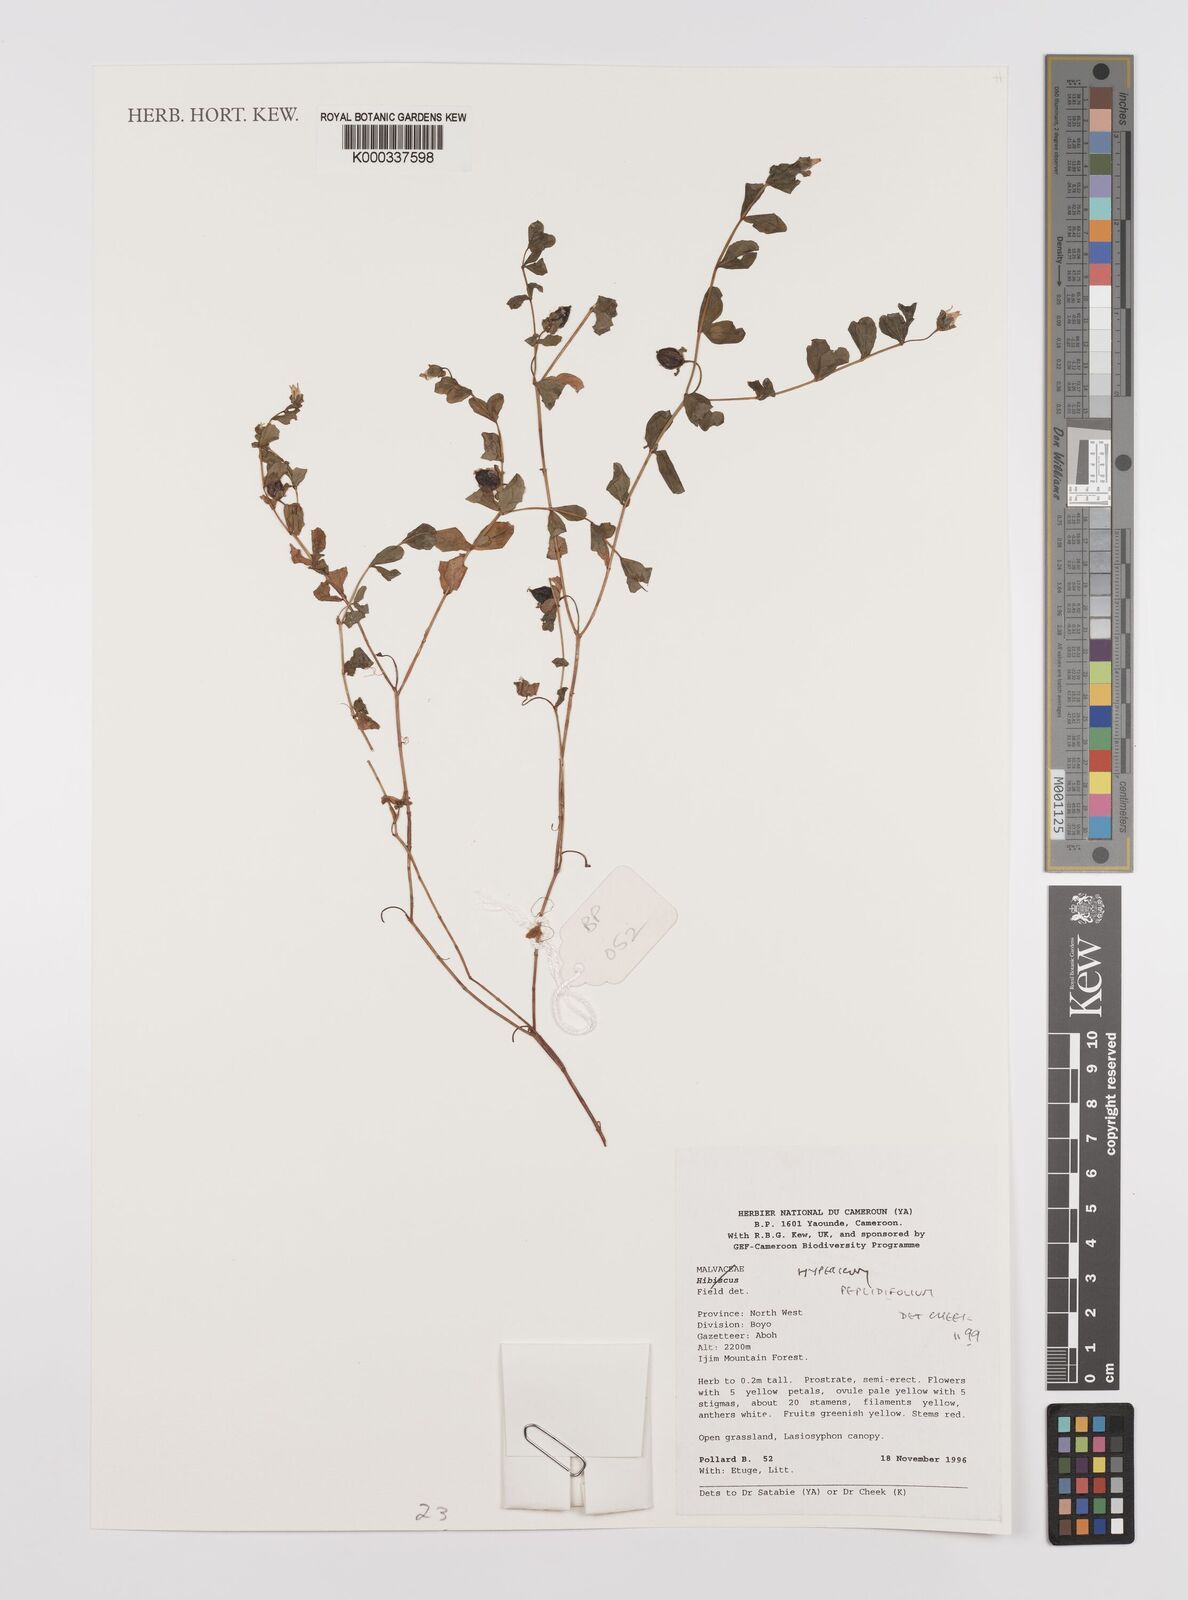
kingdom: Plantae
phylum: Tracheophyta
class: Magnoliopsida
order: Malpighiales
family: Hypericaceae
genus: Hypericum
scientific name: Hypericum peplidifolium
